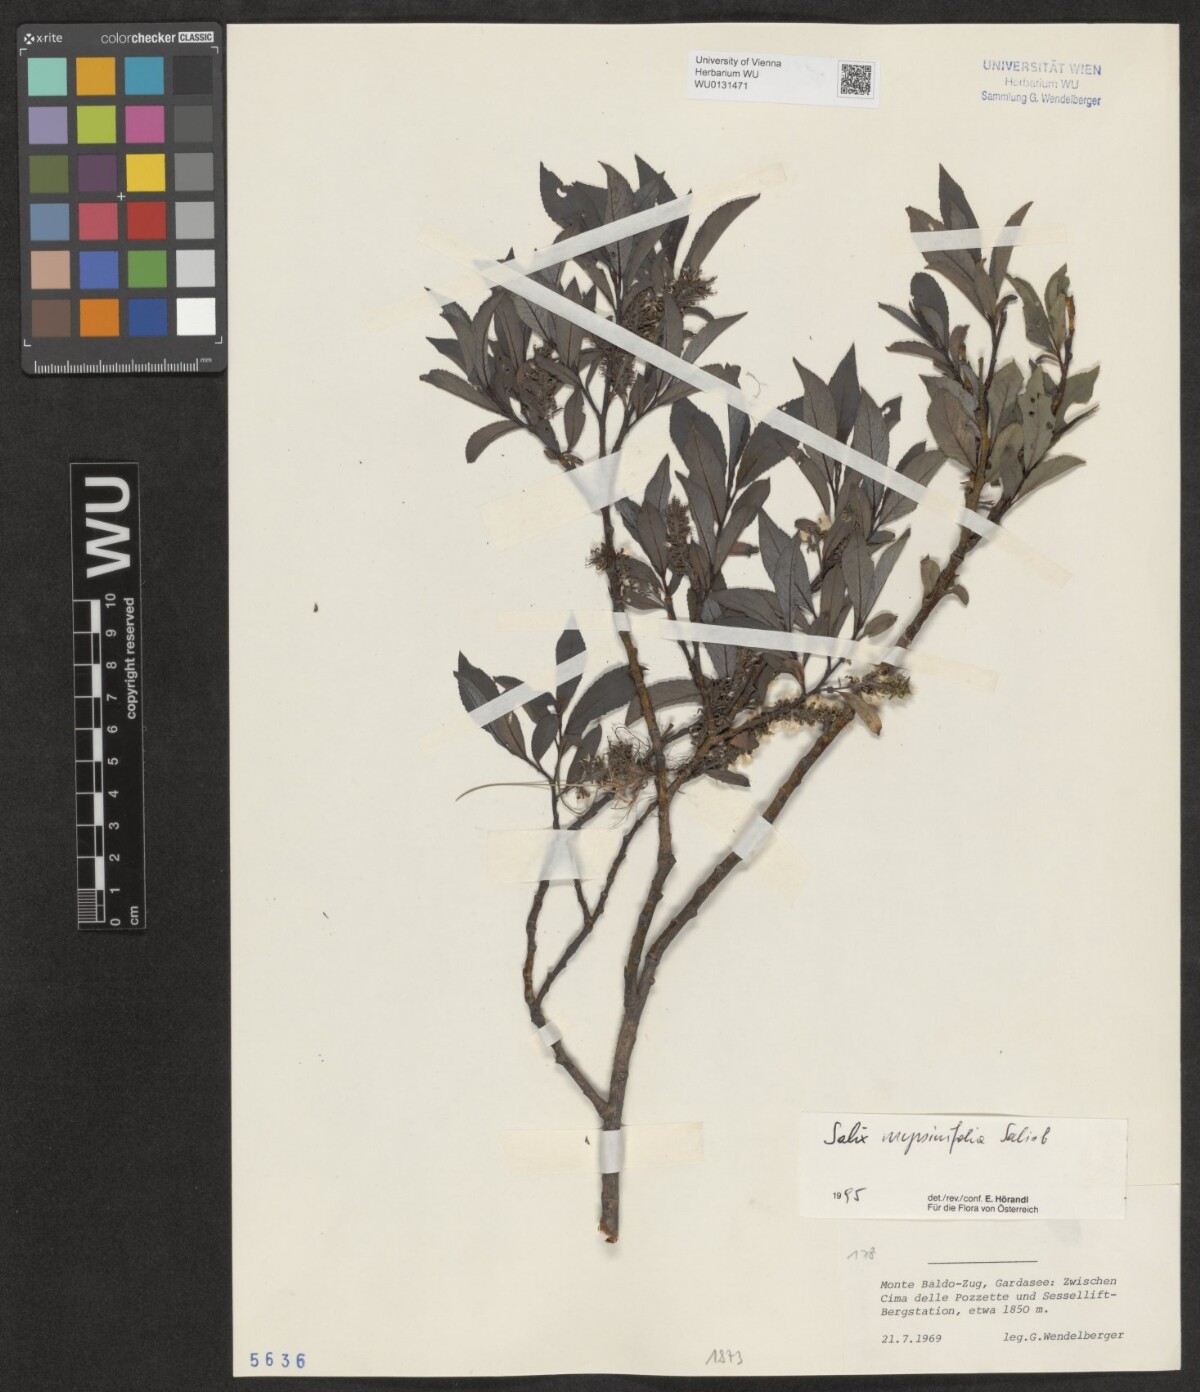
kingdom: Plantae
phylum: Tracheophyta
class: Magnoliopsida
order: Malpighiales
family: Salicaceae
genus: Salix
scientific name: Salix myrsinifolia
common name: Dark-leaved willow
